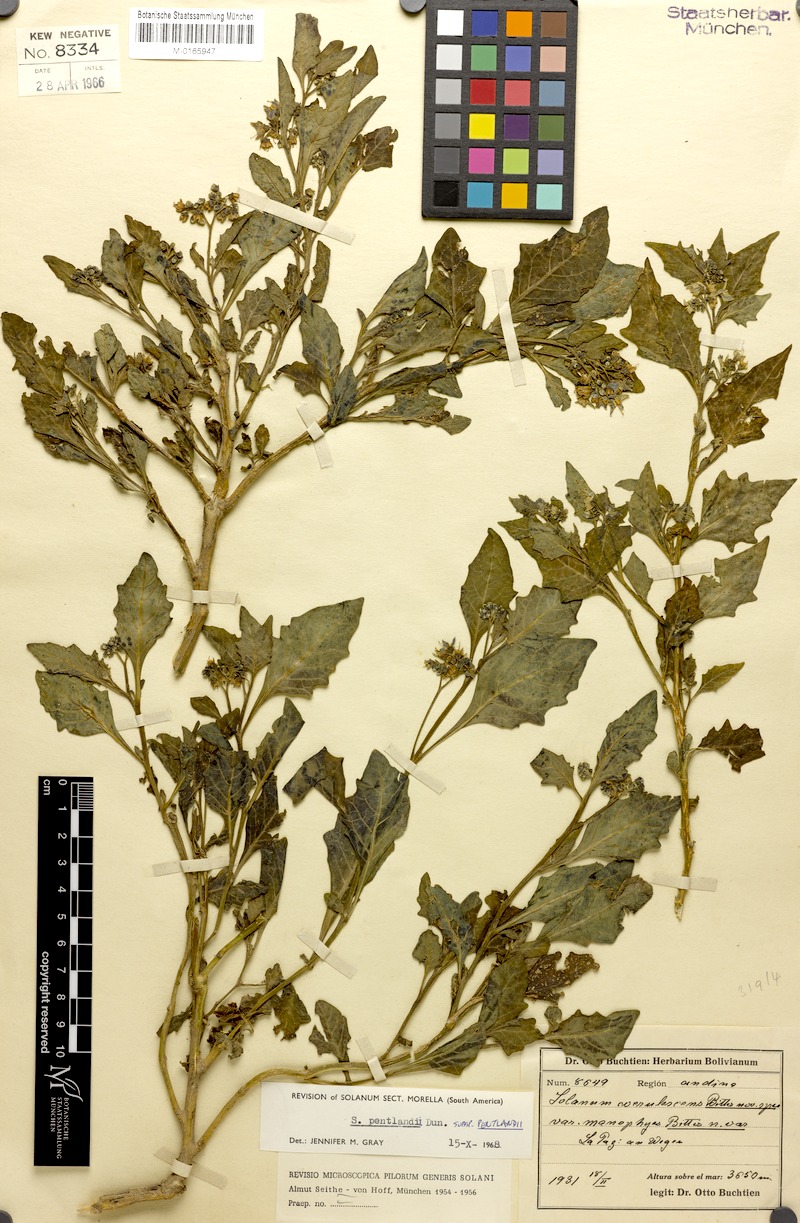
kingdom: Plantae
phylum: Tracheophyta
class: Magnoliopsida
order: Solanales
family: Solanaceae
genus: Solanum
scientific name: Solanum pentlandii
